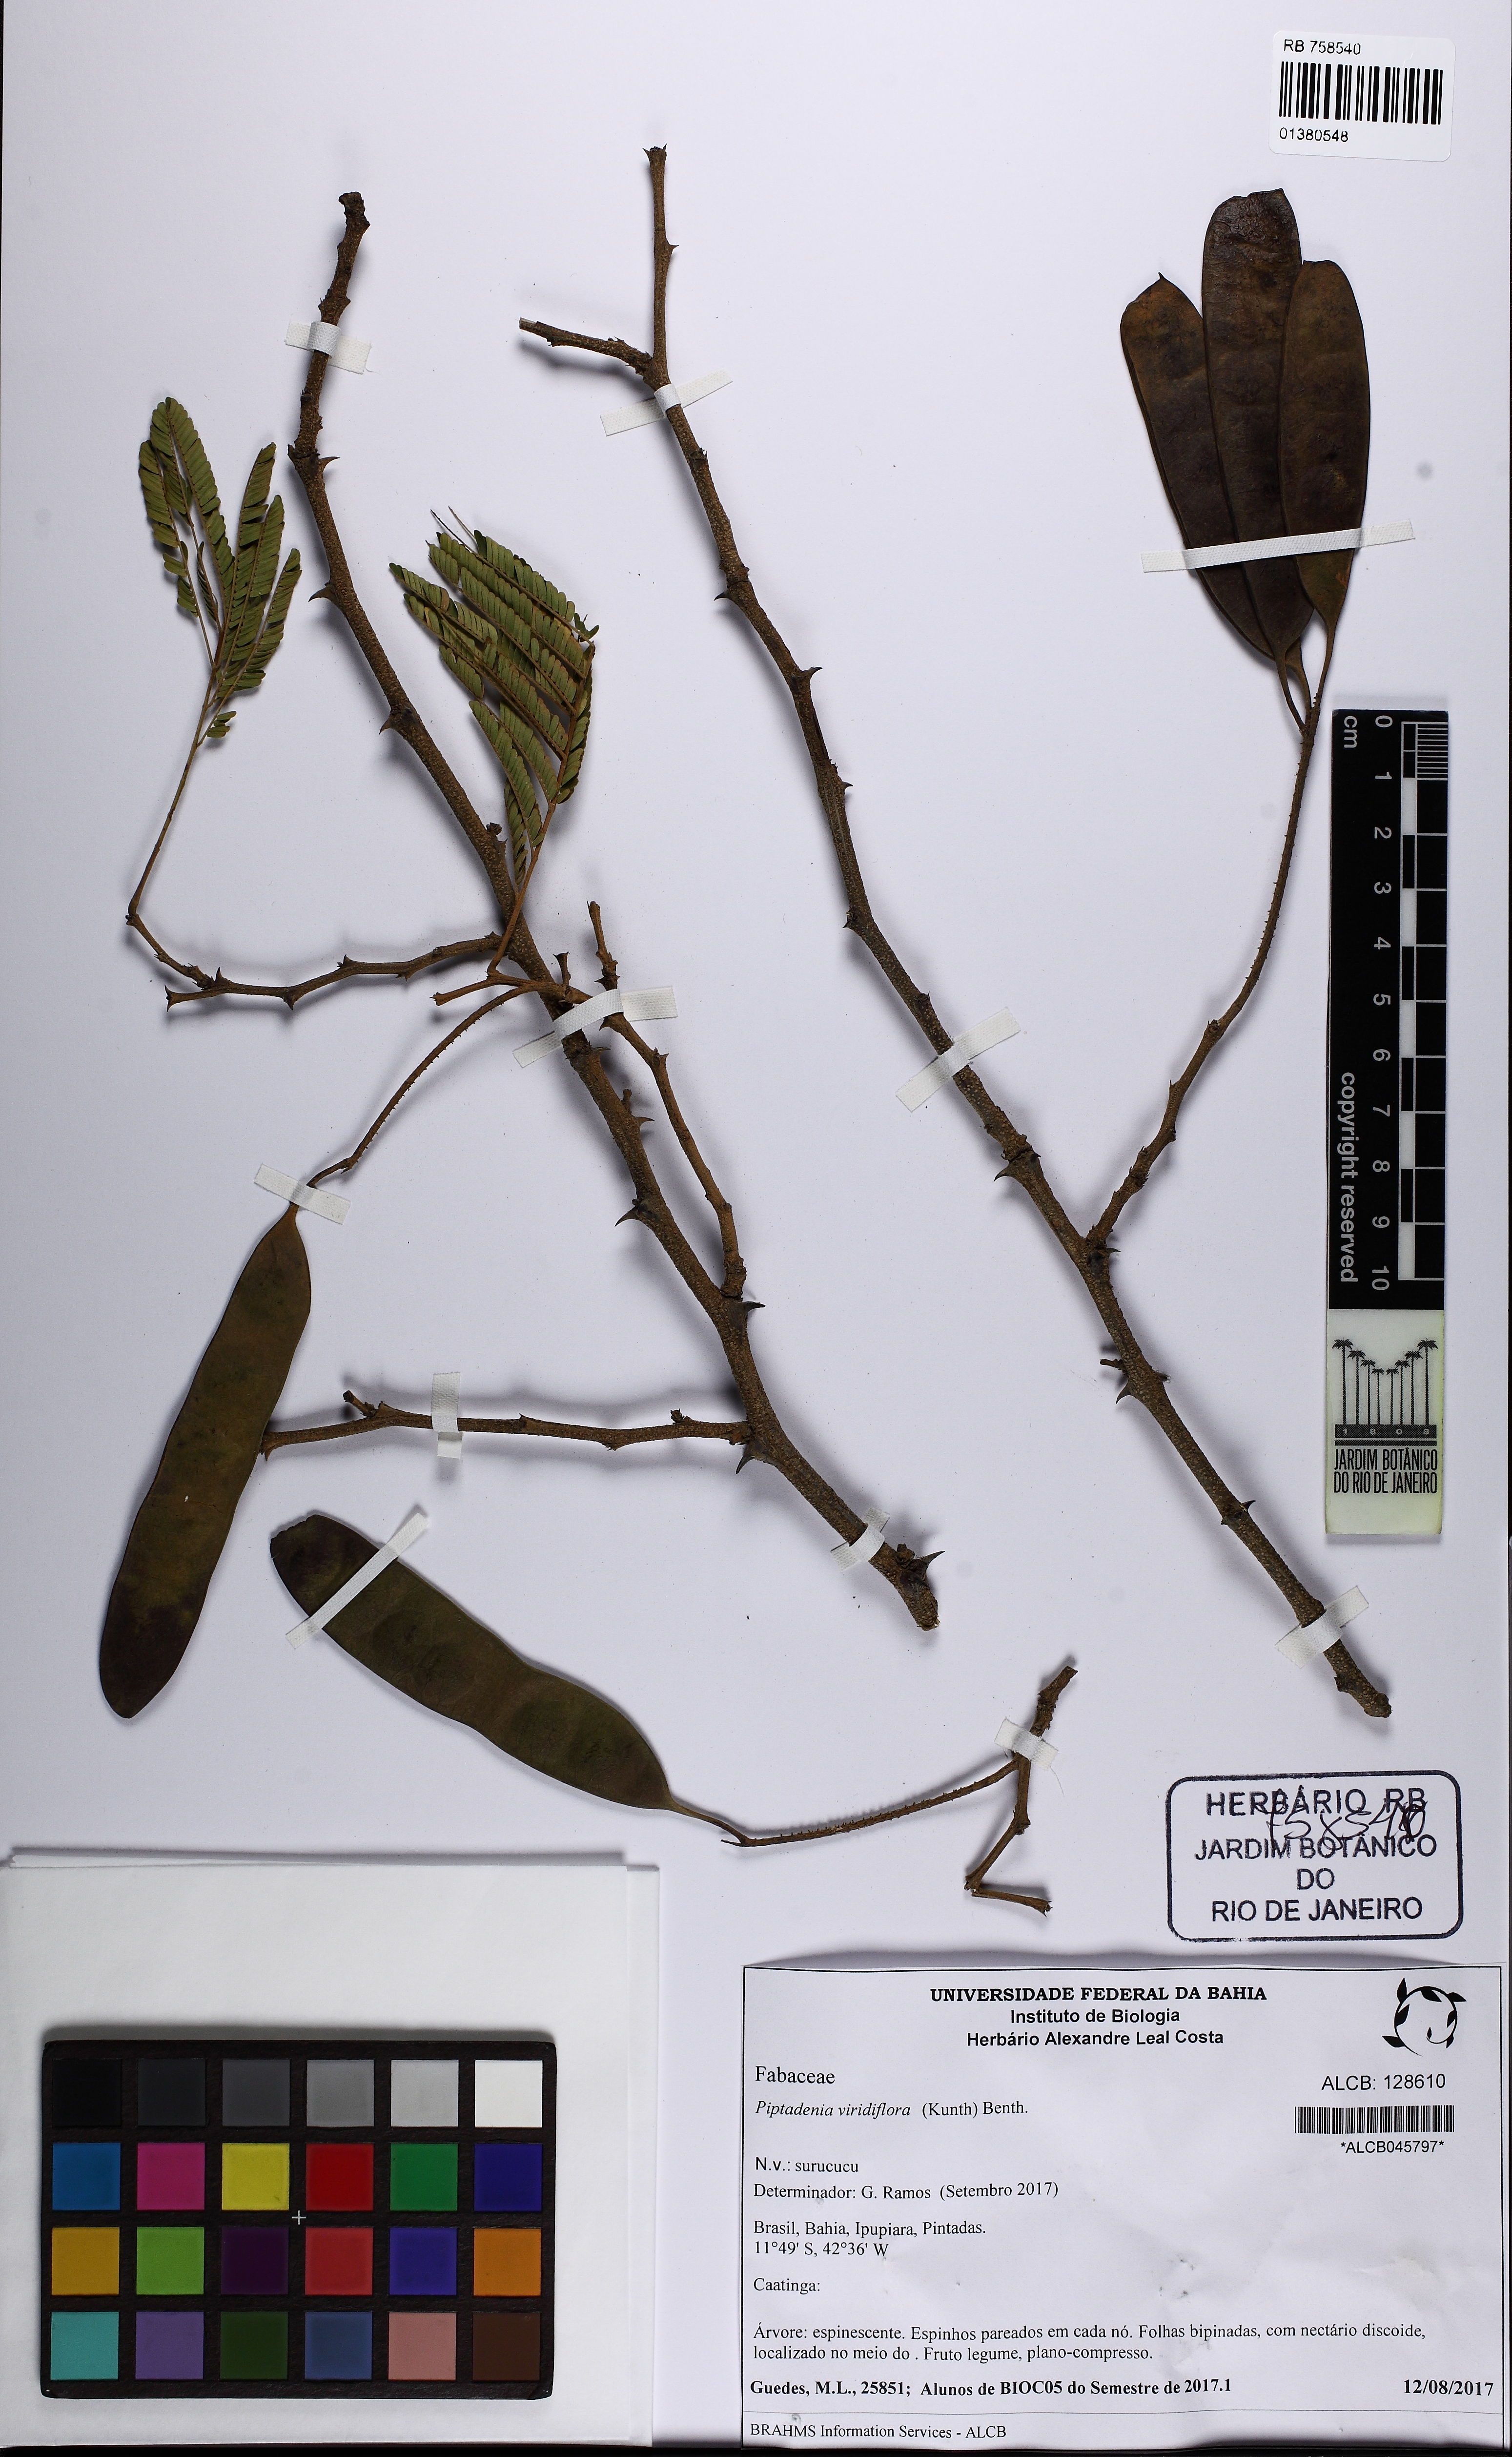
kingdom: Plantae
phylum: Tracheophyta
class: Magnoliopsida
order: Fabales
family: Fabaceae
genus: Lachesiodendron
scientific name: Lachesiodendron viridiflorum
